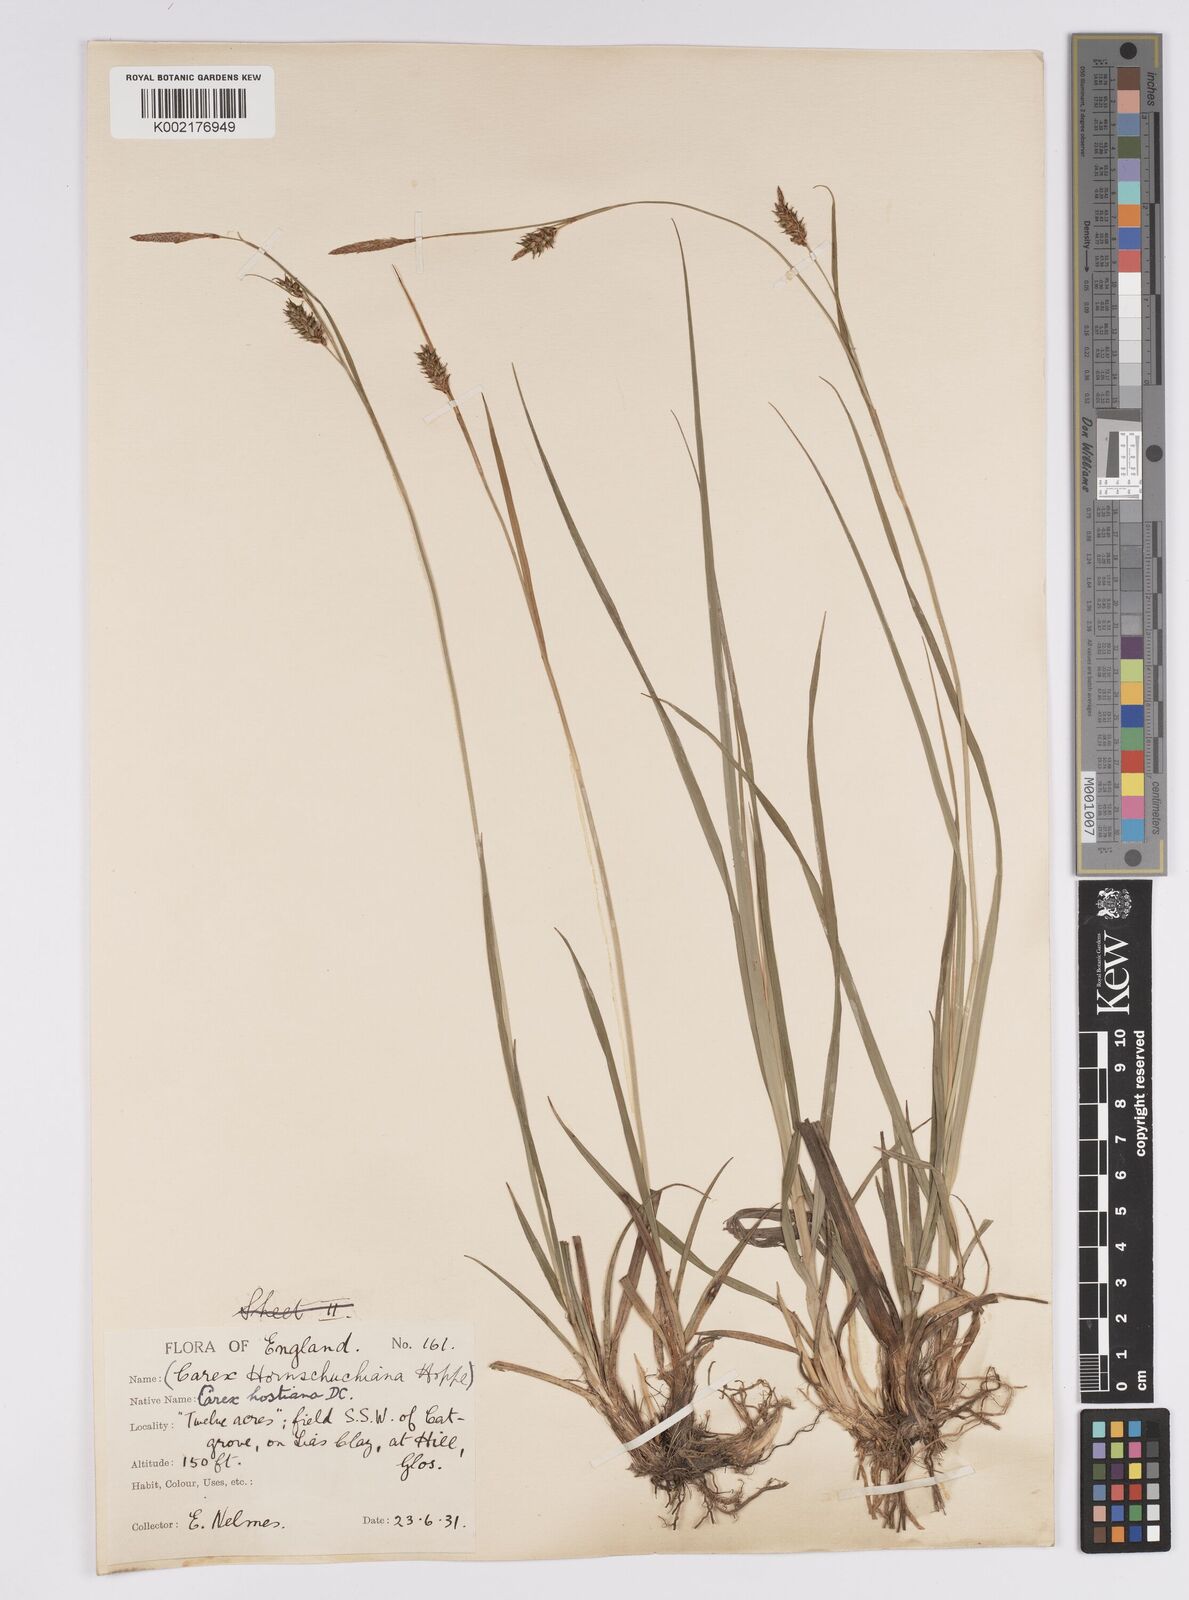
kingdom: Plantae
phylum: Tracheophyta
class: Liliopsida
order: Poales
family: Cyperaceae
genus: Carex
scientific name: Carex hostiana
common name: Tawny sedge
